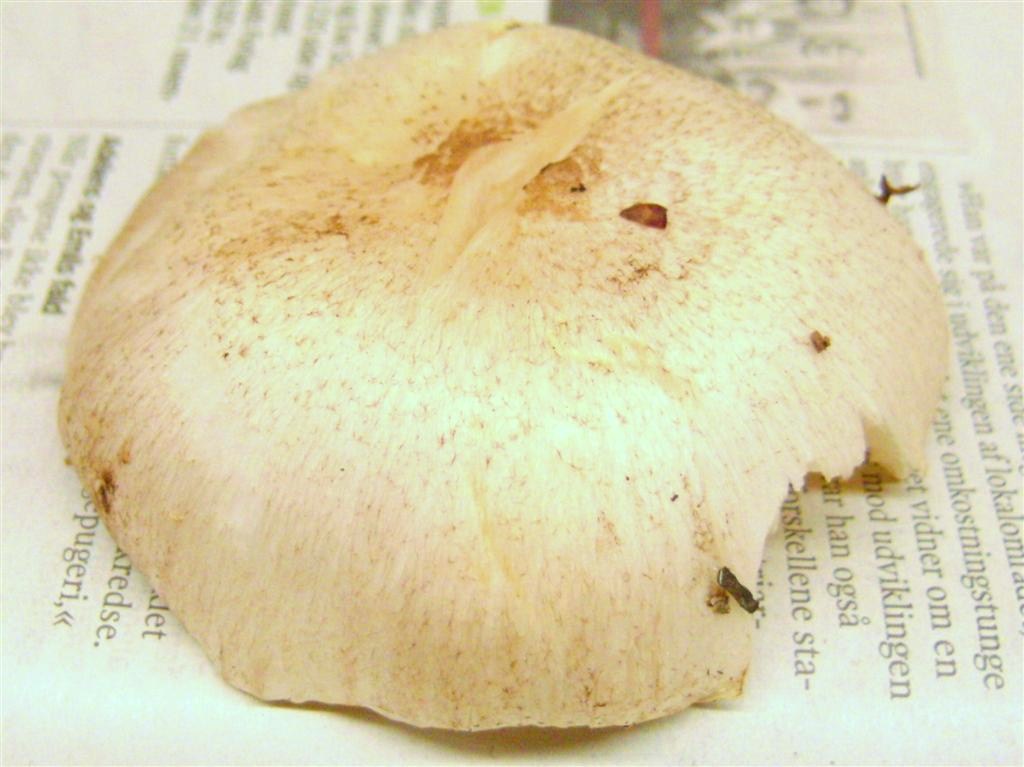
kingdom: Fungi
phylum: Basidiomycota
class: Agaricomycetes
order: Agaricales
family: Tricholomataceae
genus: Tricholoma
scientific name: Tricholoma scalpturatum
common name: gulplettet ridderhat
